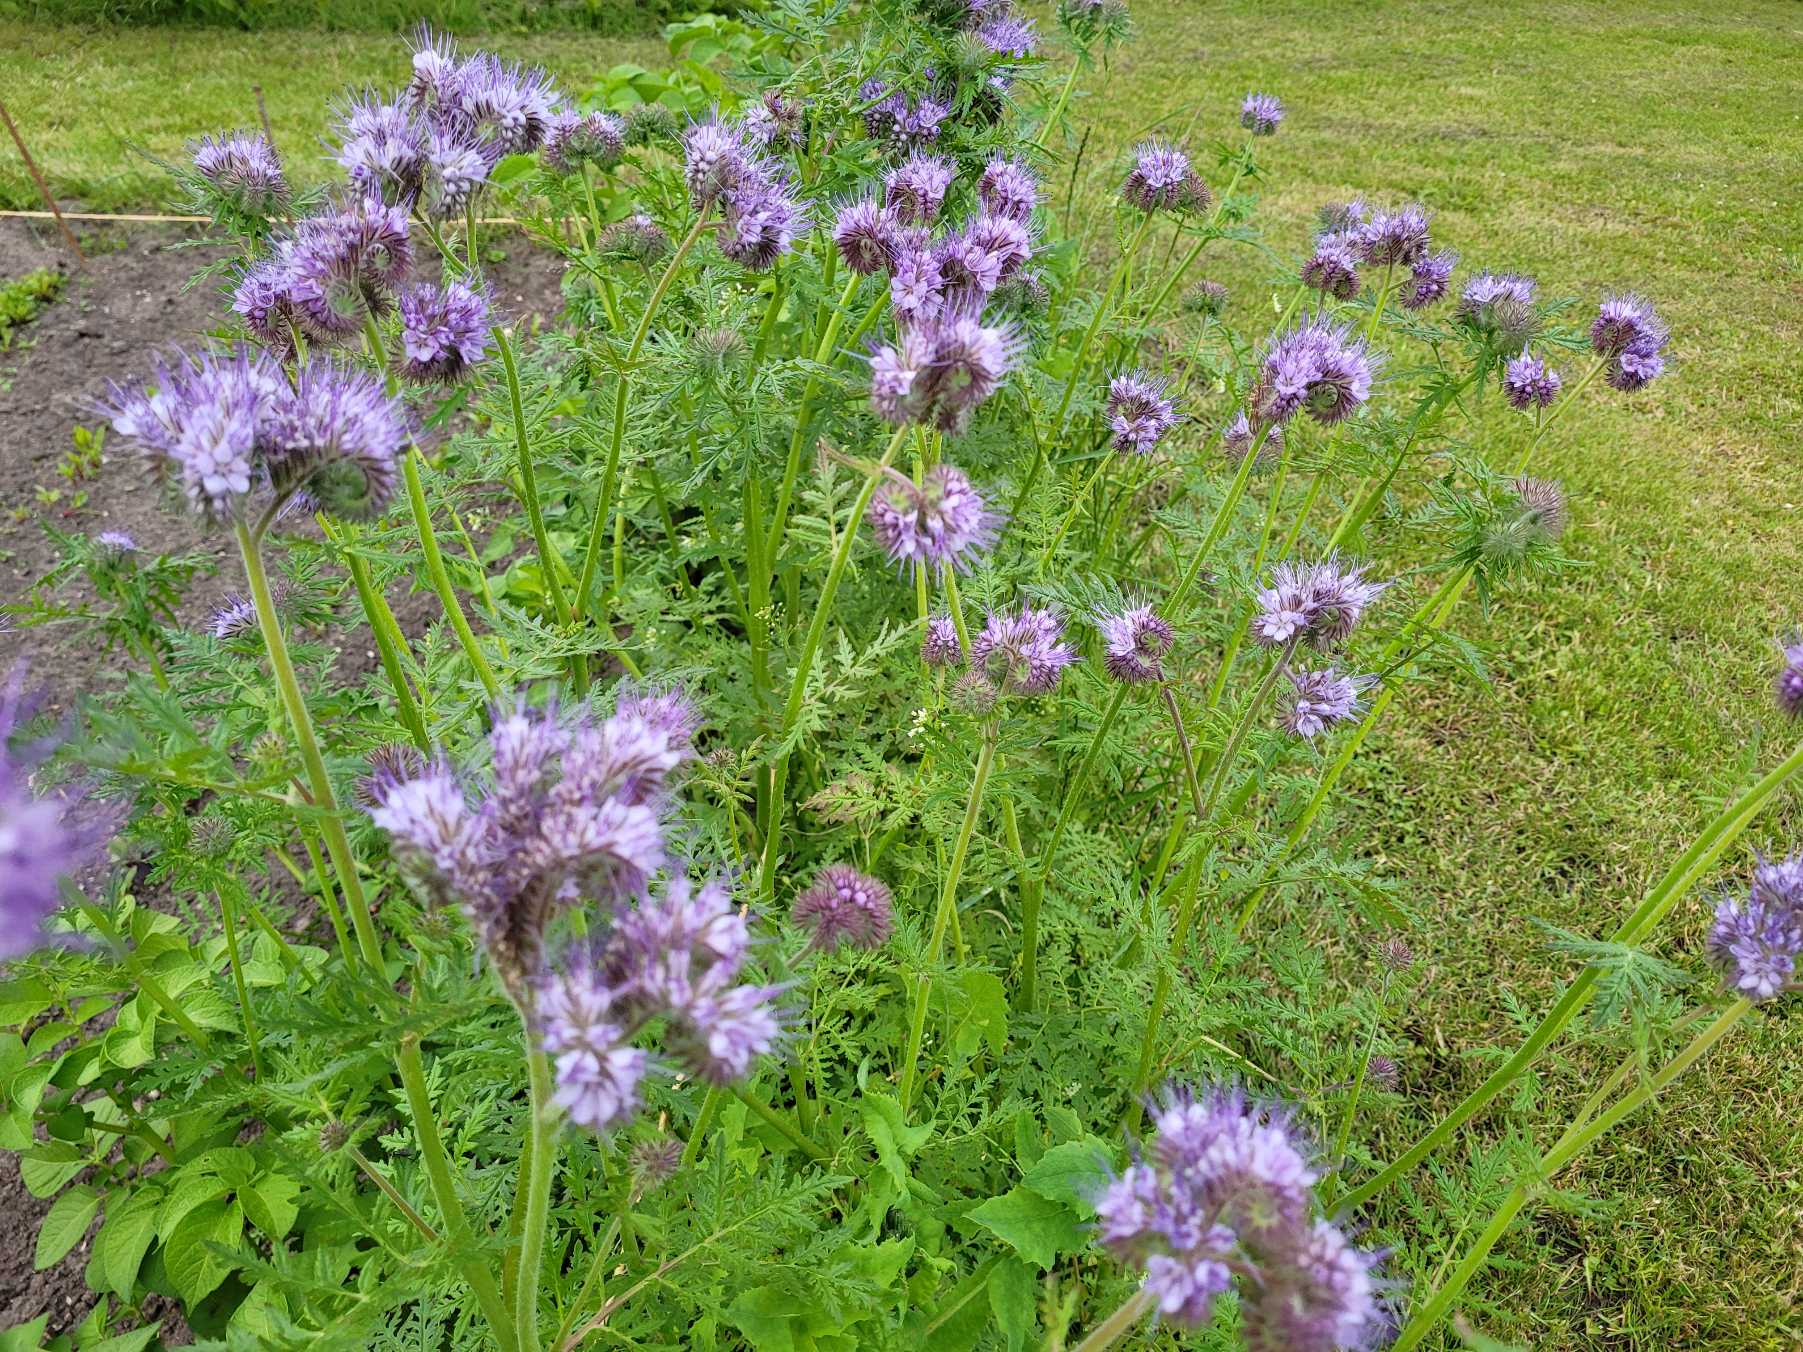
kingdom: Plantae
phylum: Tracheophyta
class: Magnoliopsida
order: Boraginales
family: Hydrophyllaceae
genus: Phacelia
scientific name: Phacelia tanacetifolia
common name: Honningurt
